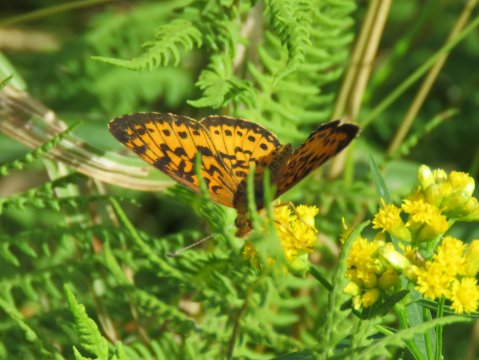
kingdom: Animalia
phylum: Arthropoda
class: Insecta
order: Lepidoptera
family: Nymphalidae
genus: Boloria
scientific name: Boloria selene
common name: Silver-bordered Fritillary
